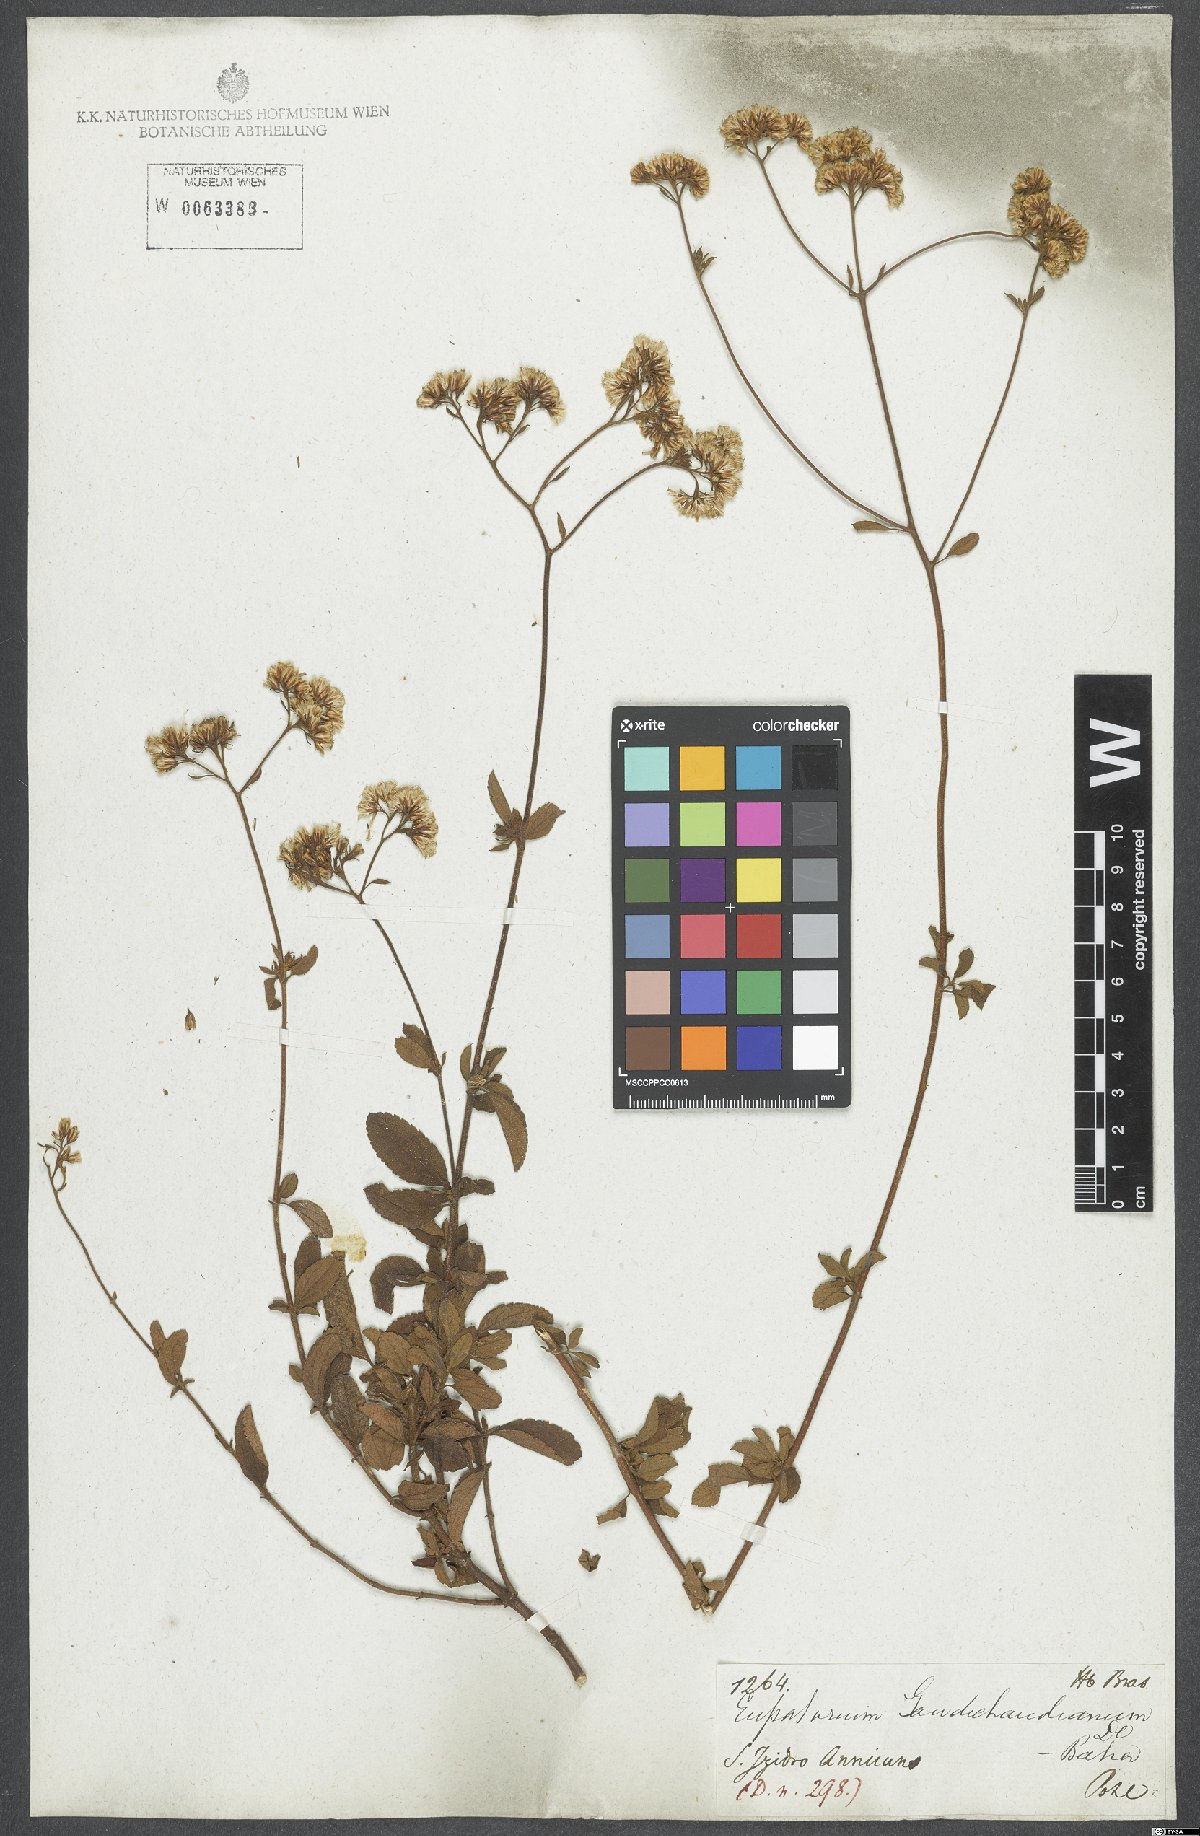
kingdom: Plantae
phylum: Tracheophyta
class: Magnoliopsida
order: Asterales
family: Asteraceae
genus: Grazielia
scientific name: Grazielia gaudichaudeana
